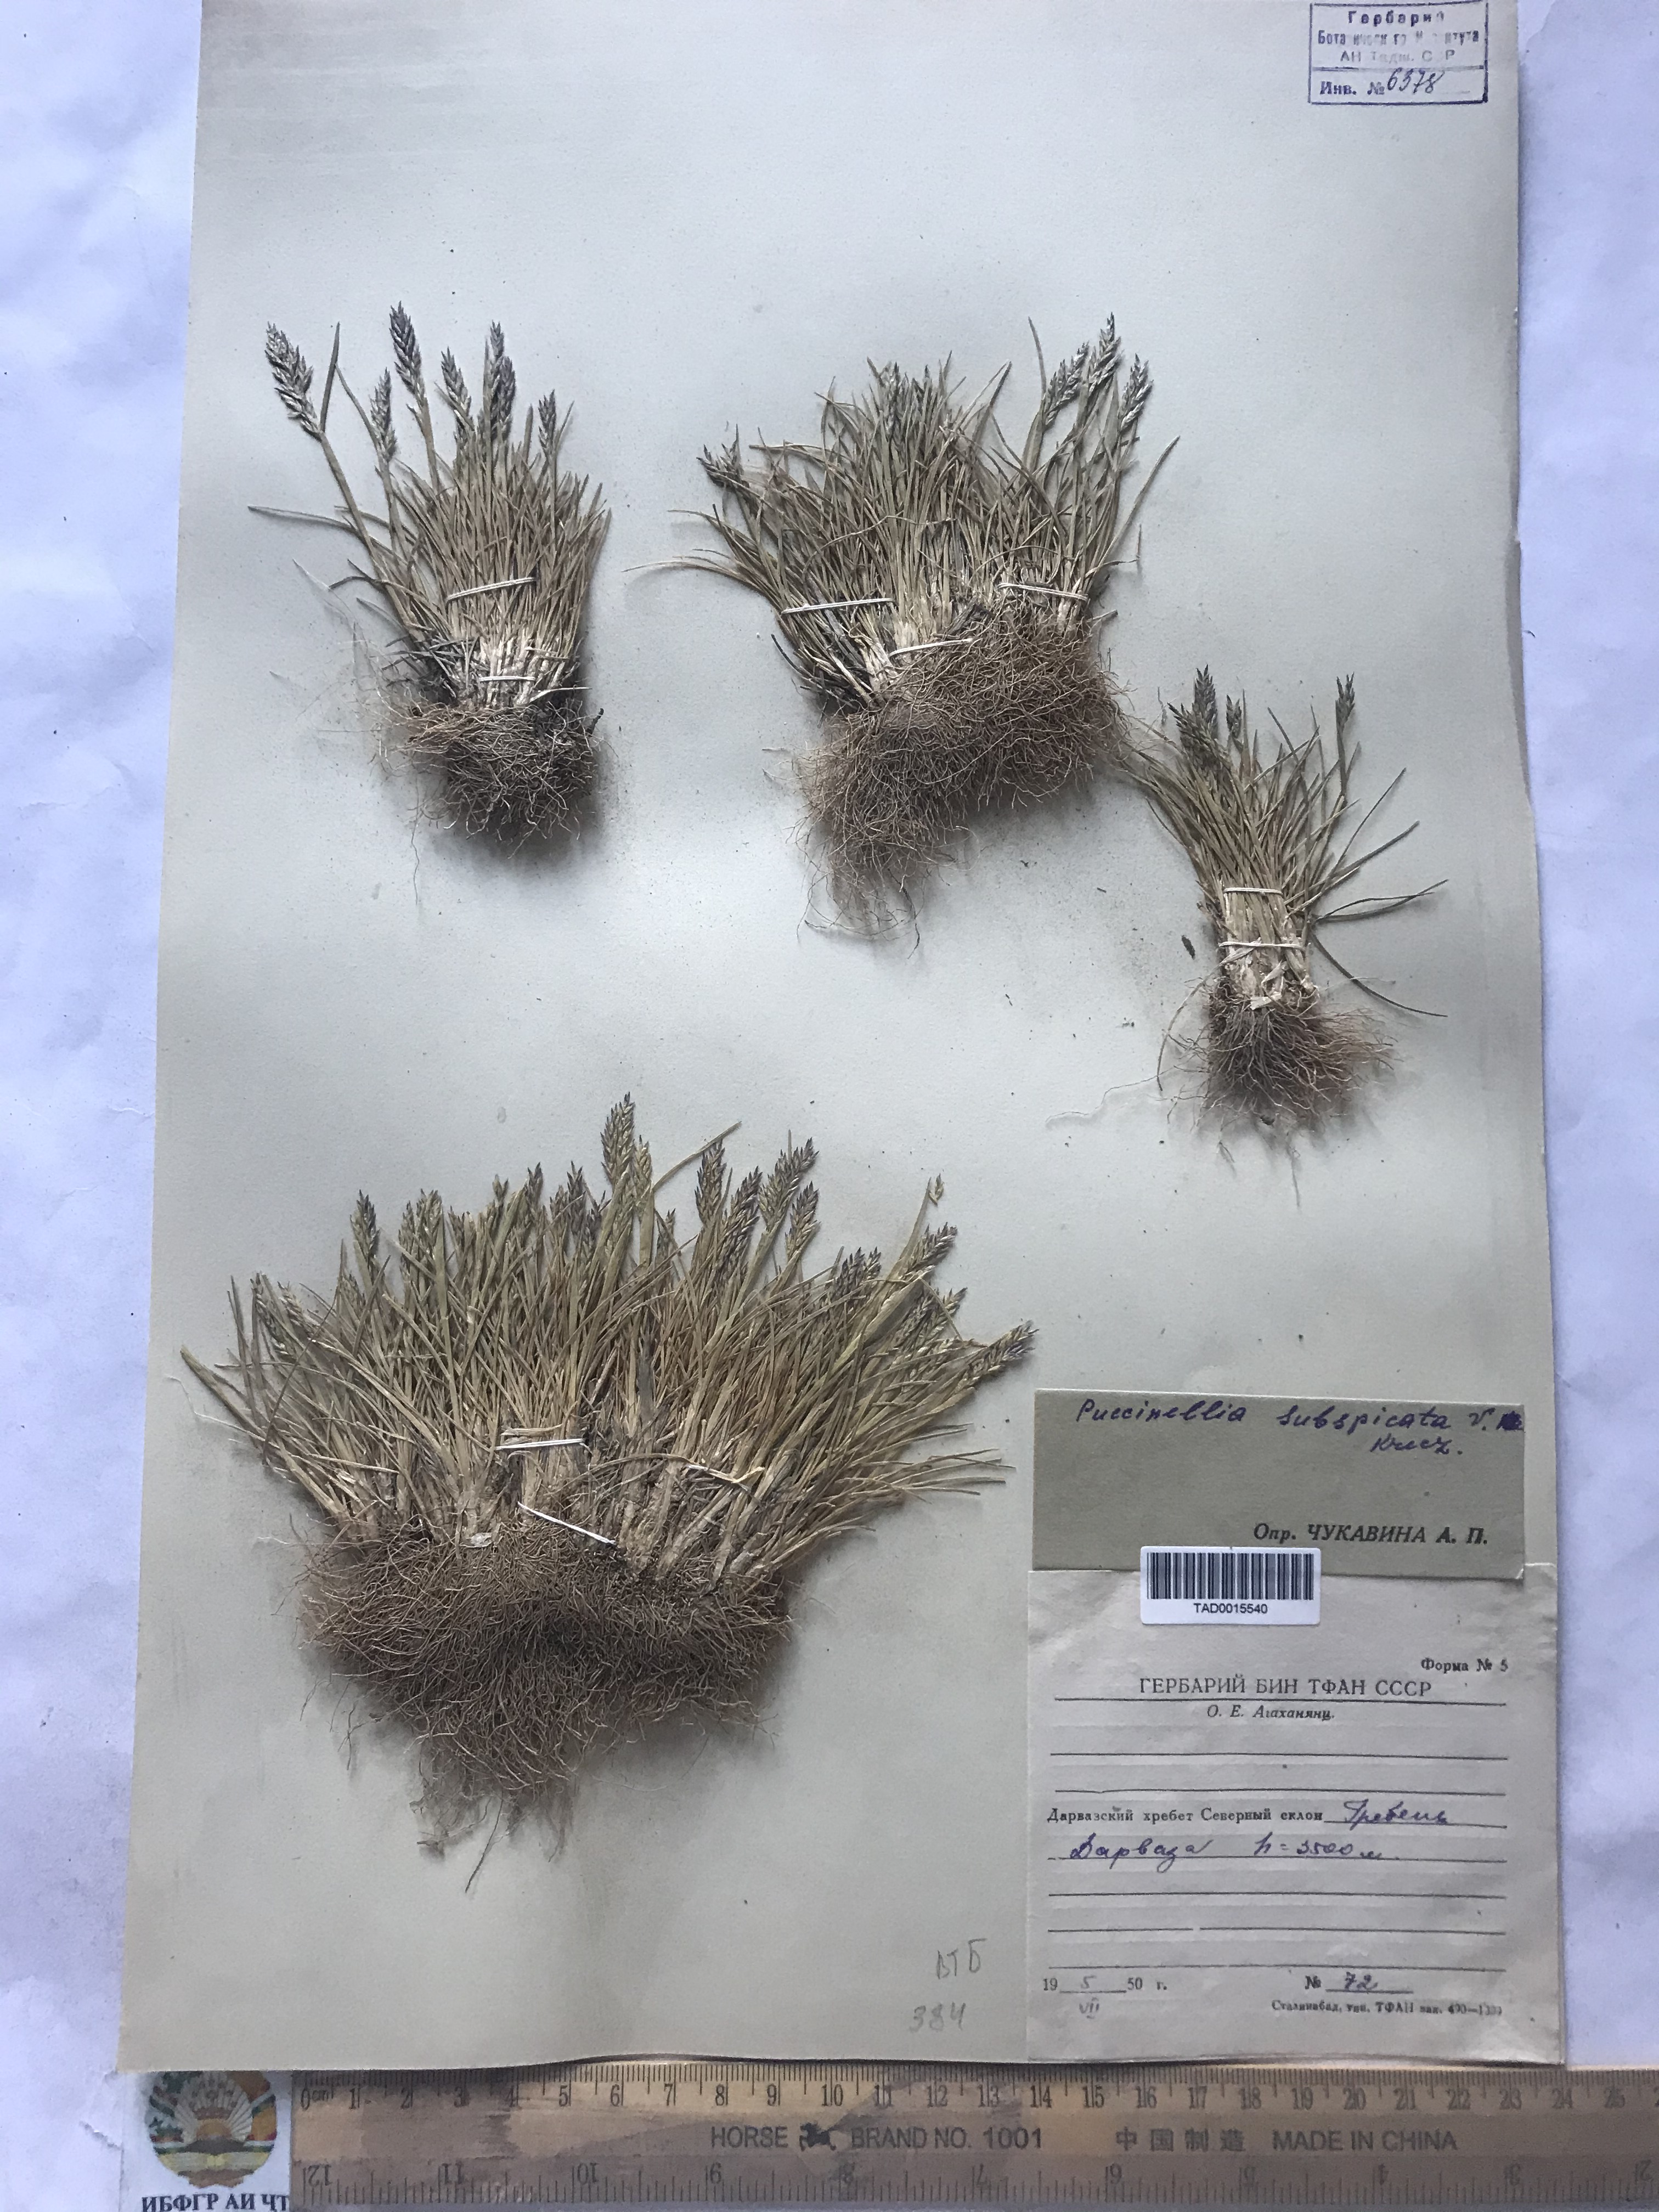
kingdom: Plantae
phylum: Tracheophyta
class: Liliopsida
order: Poales
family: Poaceae
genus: Puccinellia
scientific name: Puccinellia subspicata
